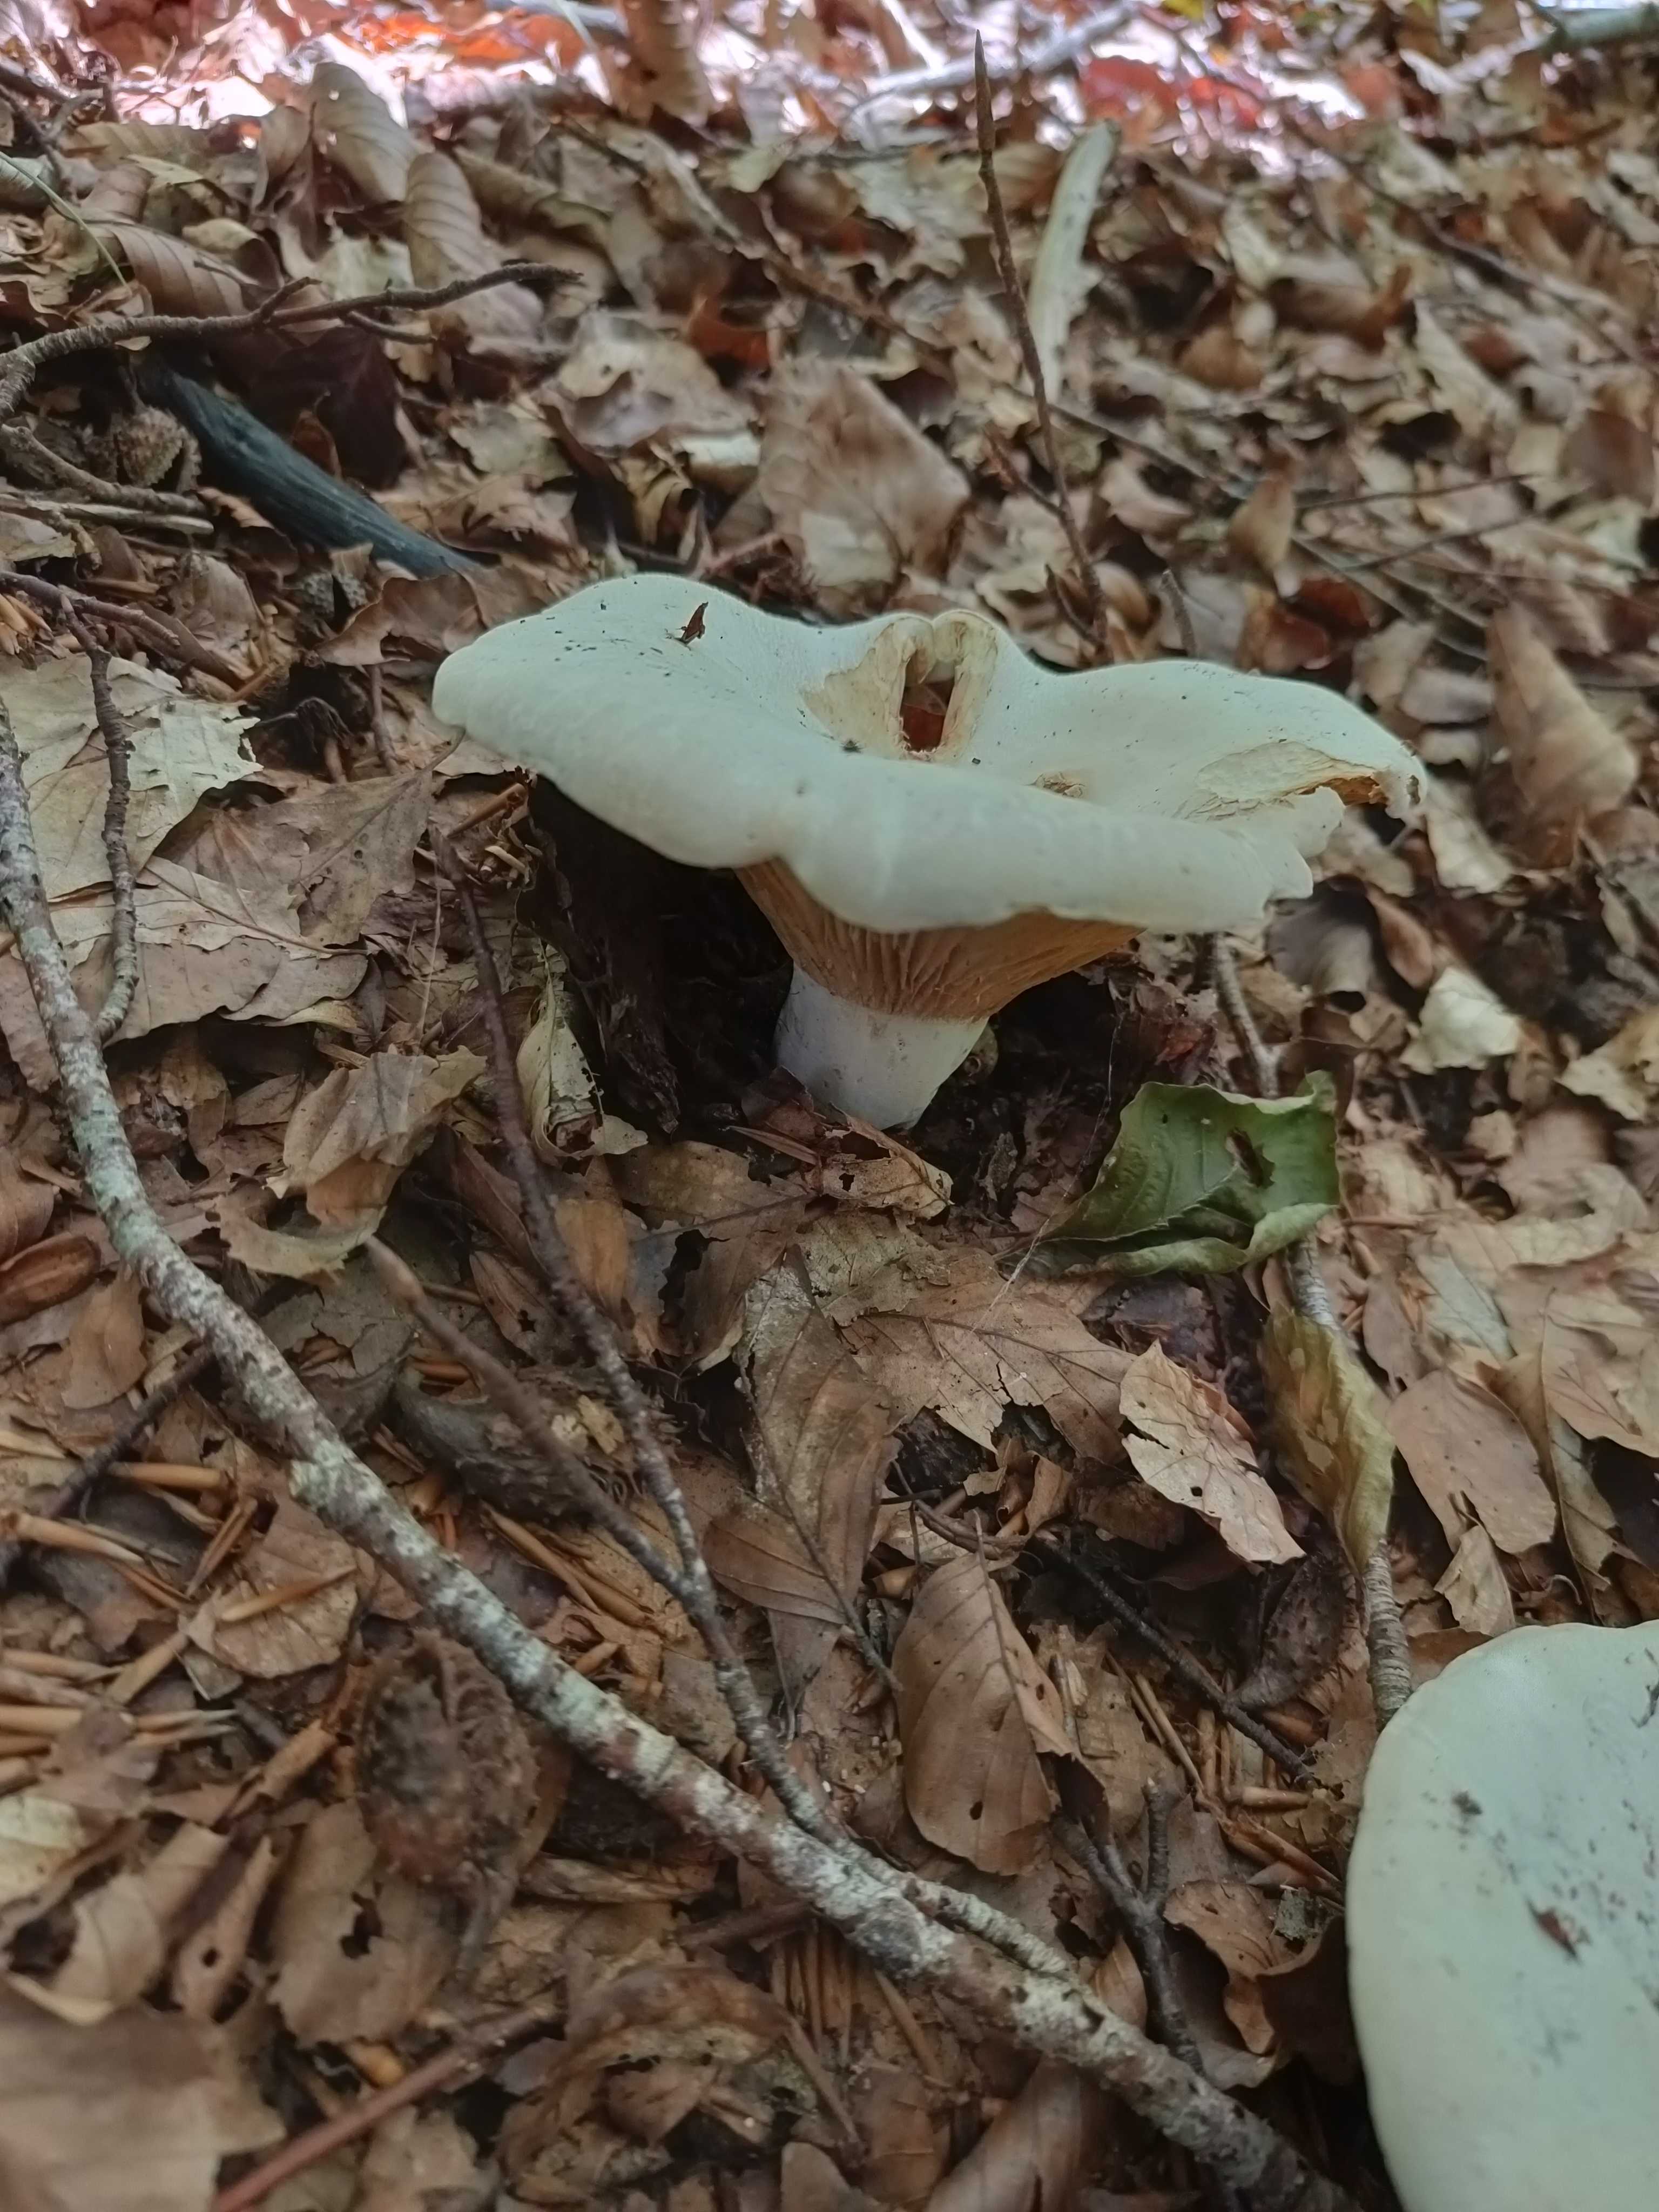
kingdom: Plantae
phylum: Bryophyta
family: Agaricomycetidae
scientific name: Agaricomycetidae
